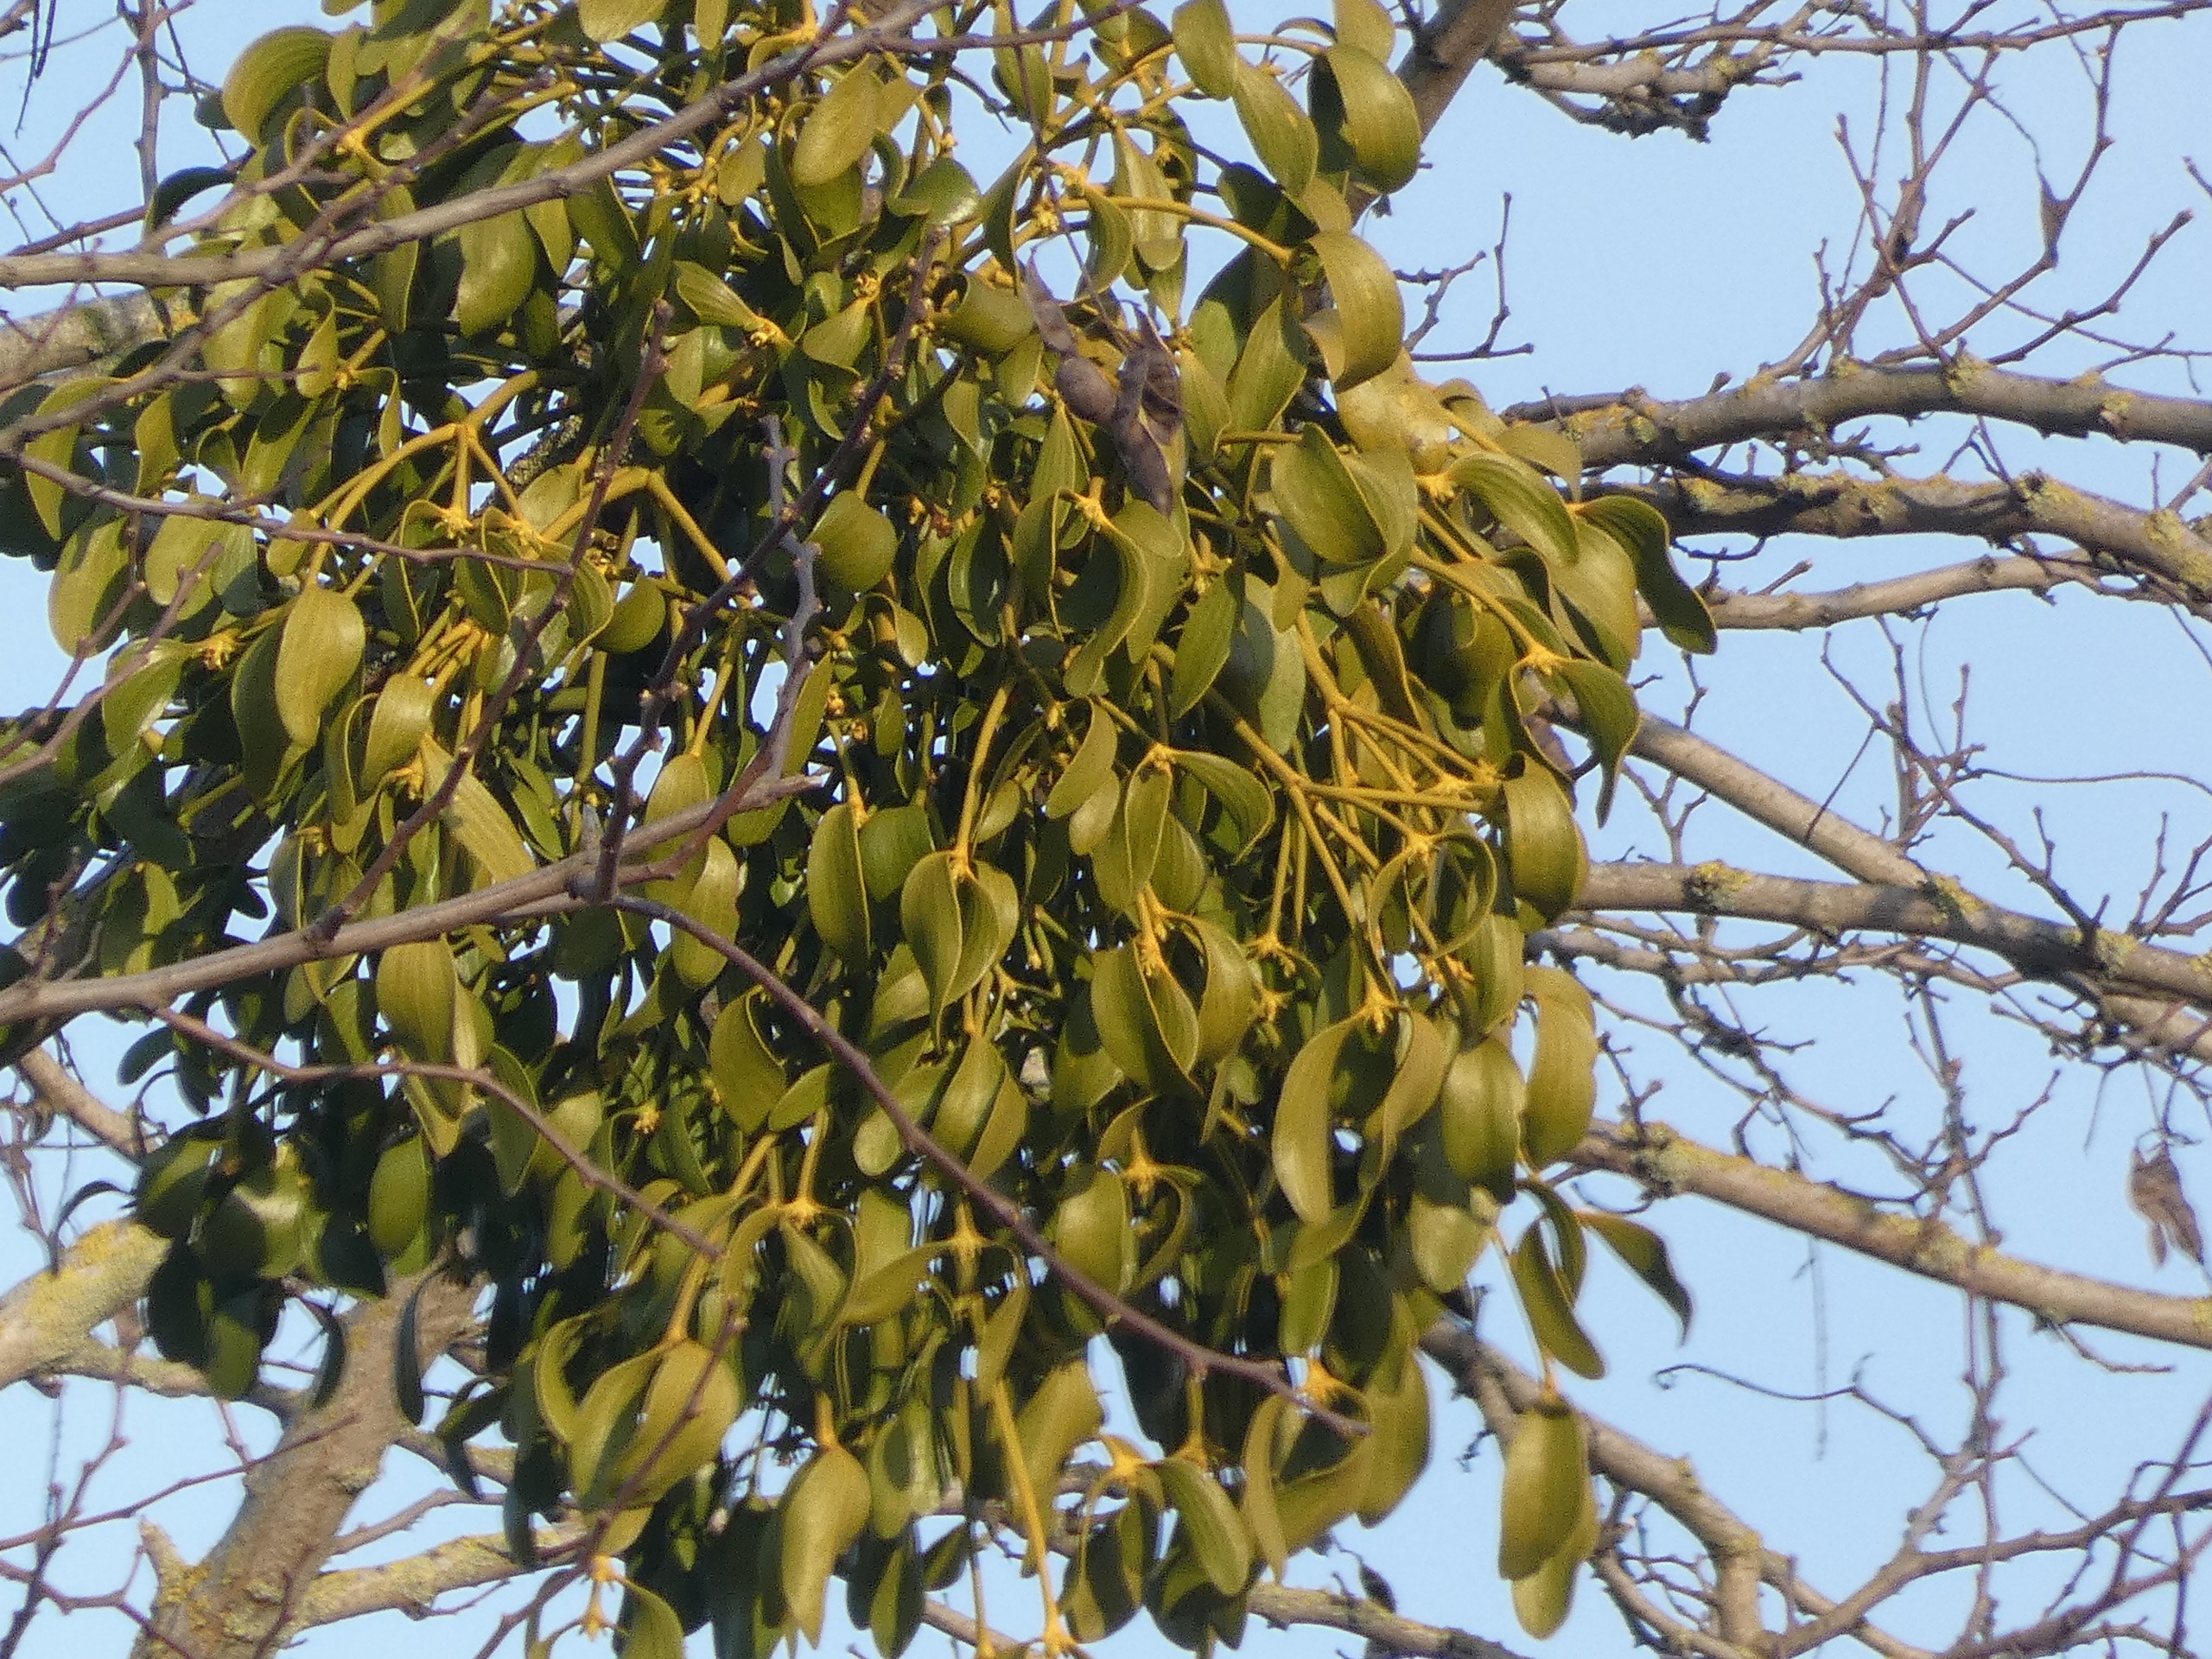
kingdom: Plantae
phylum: Tracheophyta
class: Magnoliopsida
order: Santalales
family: Viscaceae
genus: Viscum
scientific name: Viscum album
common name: Mistelten
